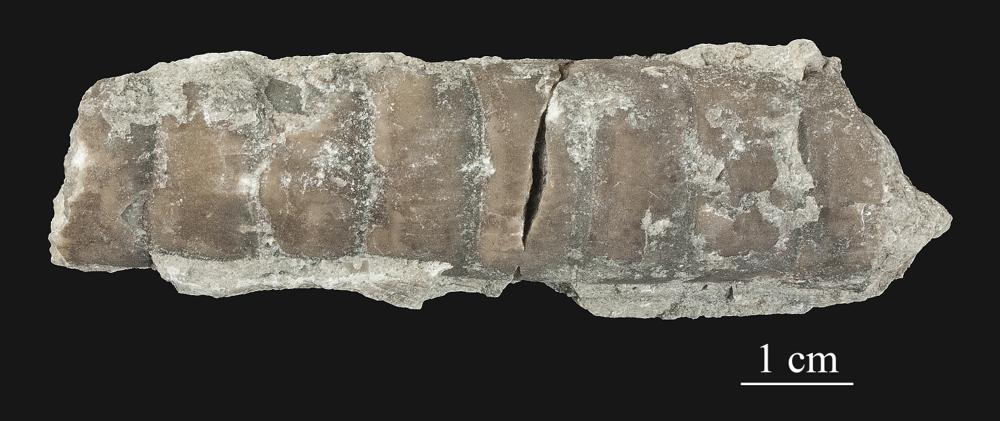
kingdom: Animalia
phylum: Mollusca
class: Cephalopoda
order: Orthocerida
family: Orthoceratidae
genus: Orthoceras
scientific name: Orthoceras
